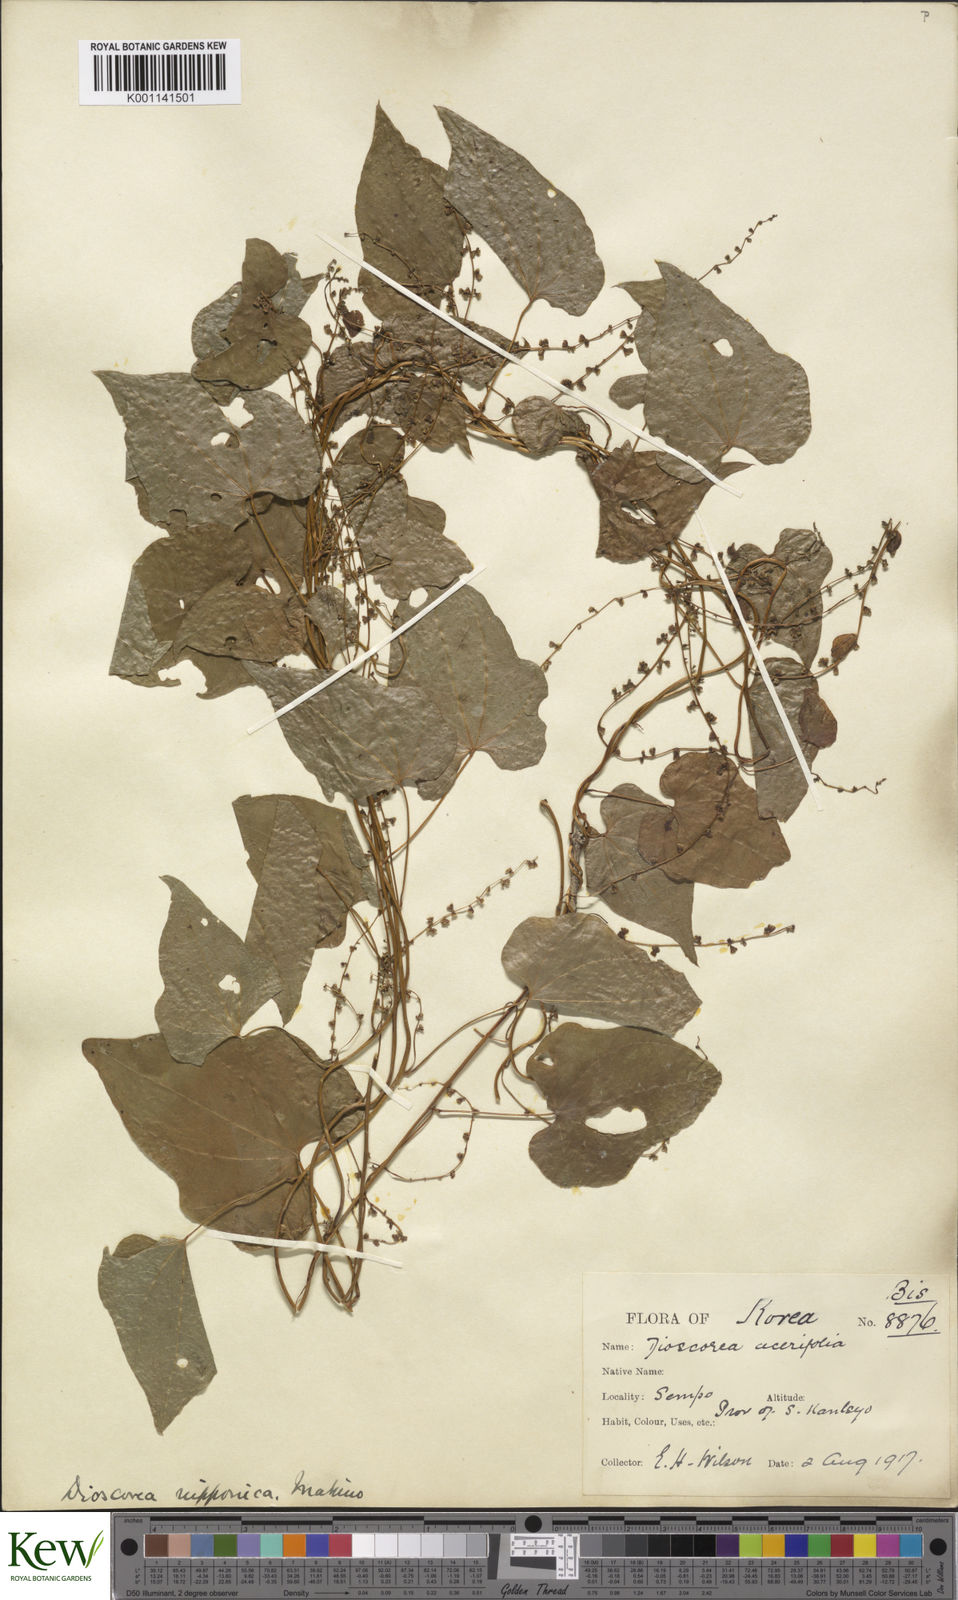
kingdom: Plantae
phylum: Tracheophyta
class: Liliopsida
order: Dioscoreales
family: Dioscoreaceae
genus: Dioscorea
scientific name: Dioscorea nipponica
